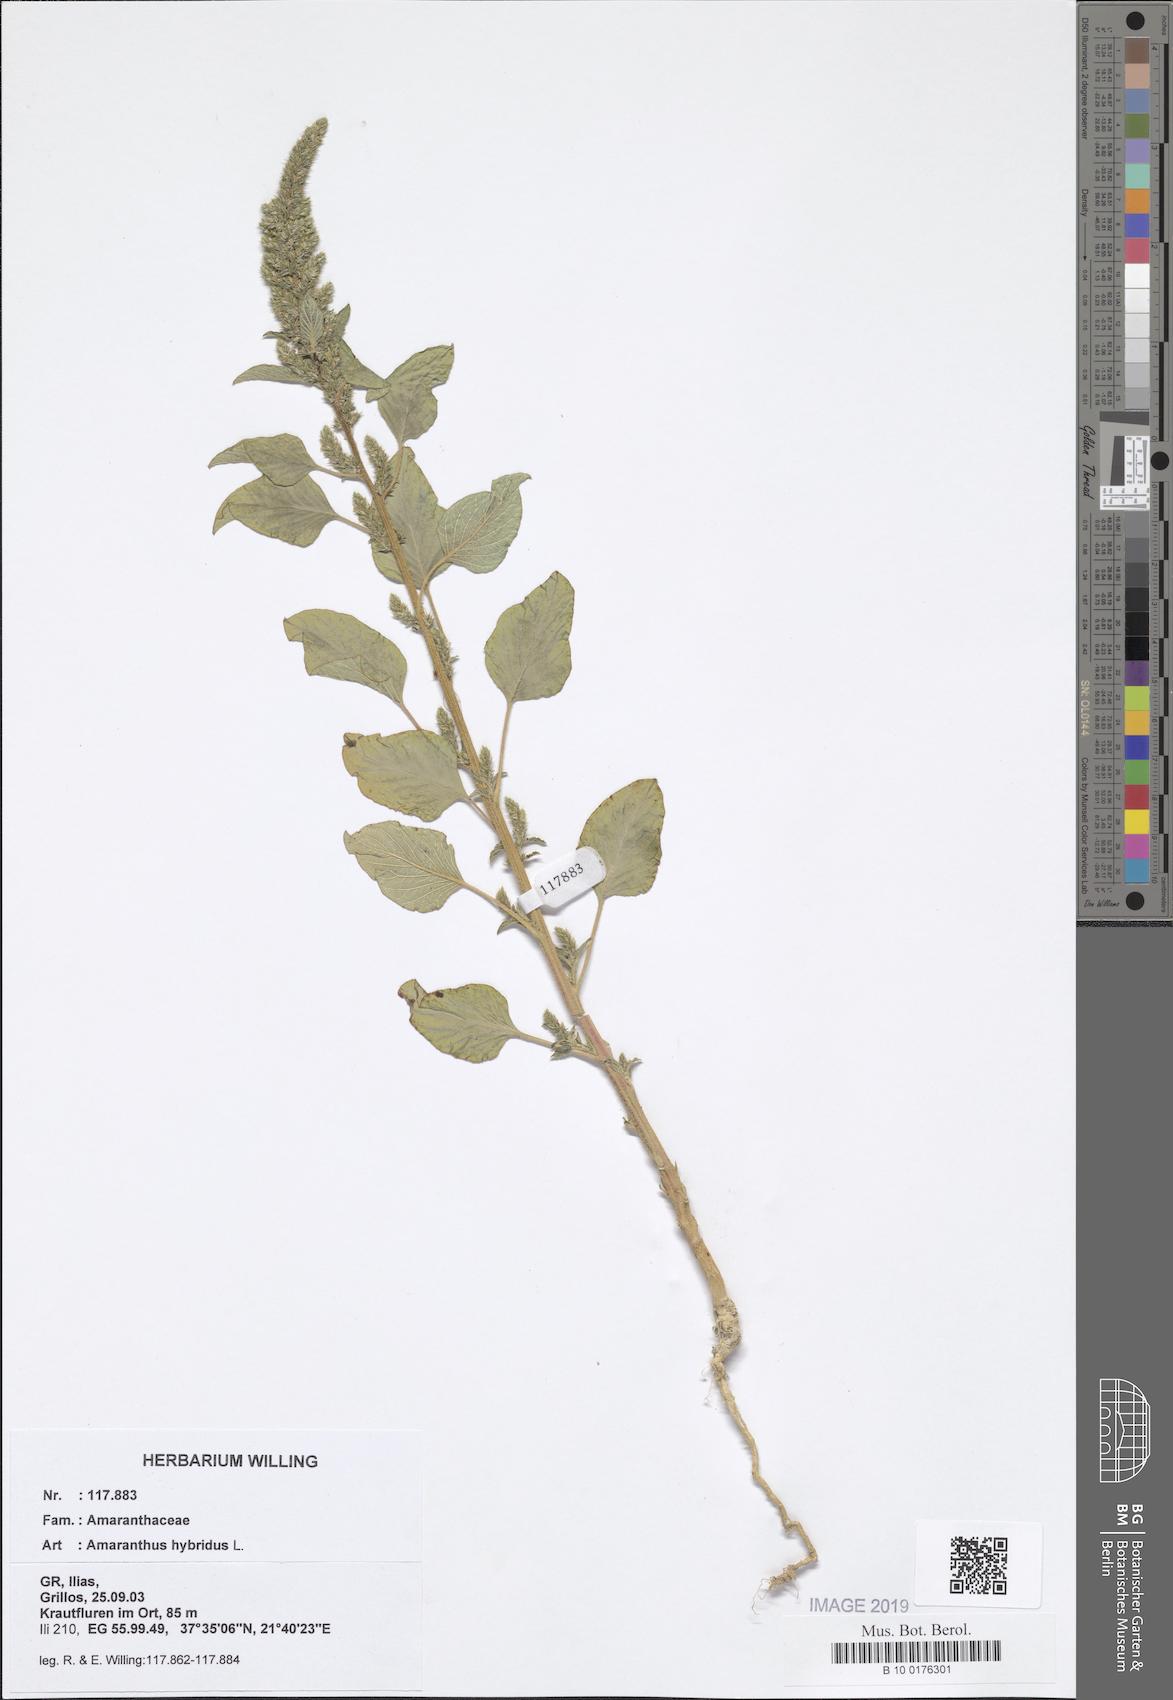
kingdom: Plantae
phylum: Tracheophyta
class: Magnoliopsida
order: Caryophyllales
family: Amaranthaceae
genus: Amaranthus
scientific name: Amaranthus hybridus
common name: Green amaranth
